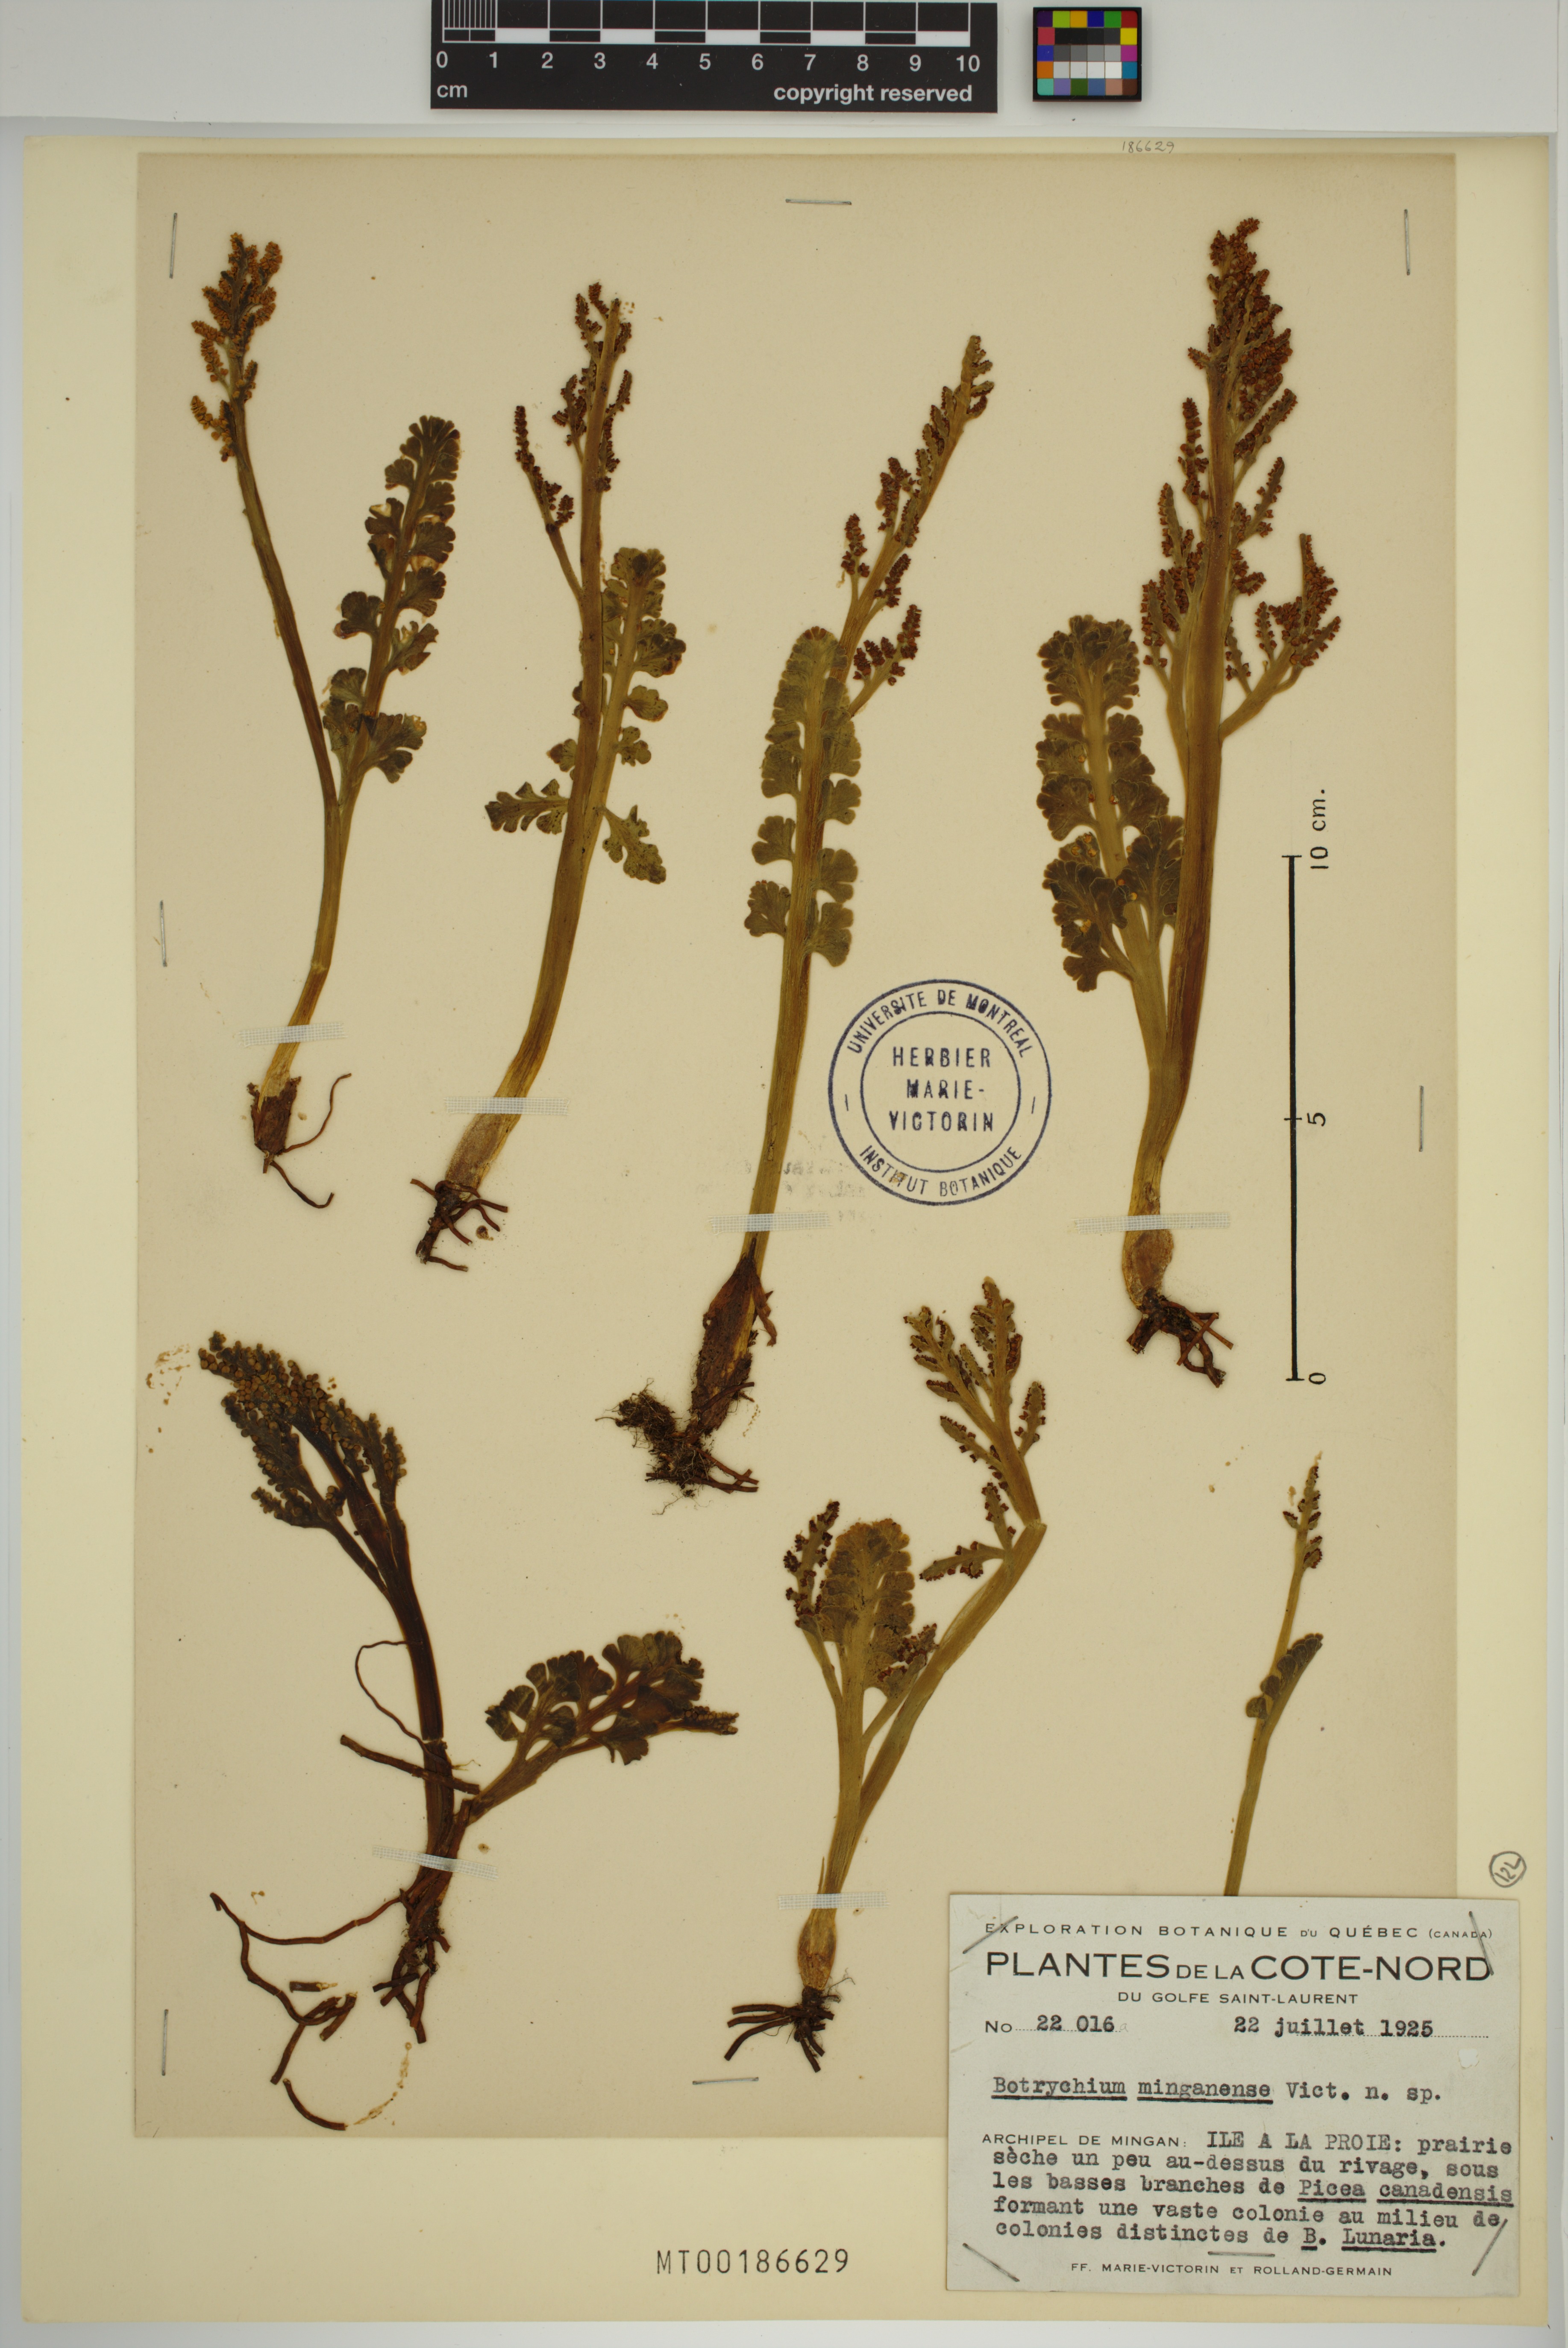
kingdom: Plantae
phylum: Tracheophyta
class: Polypodiopsida
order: Ophioglossales
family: Ophioglossaceae
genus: Botrychium
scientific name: Botrychium minganense
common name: Mingan grapefern
